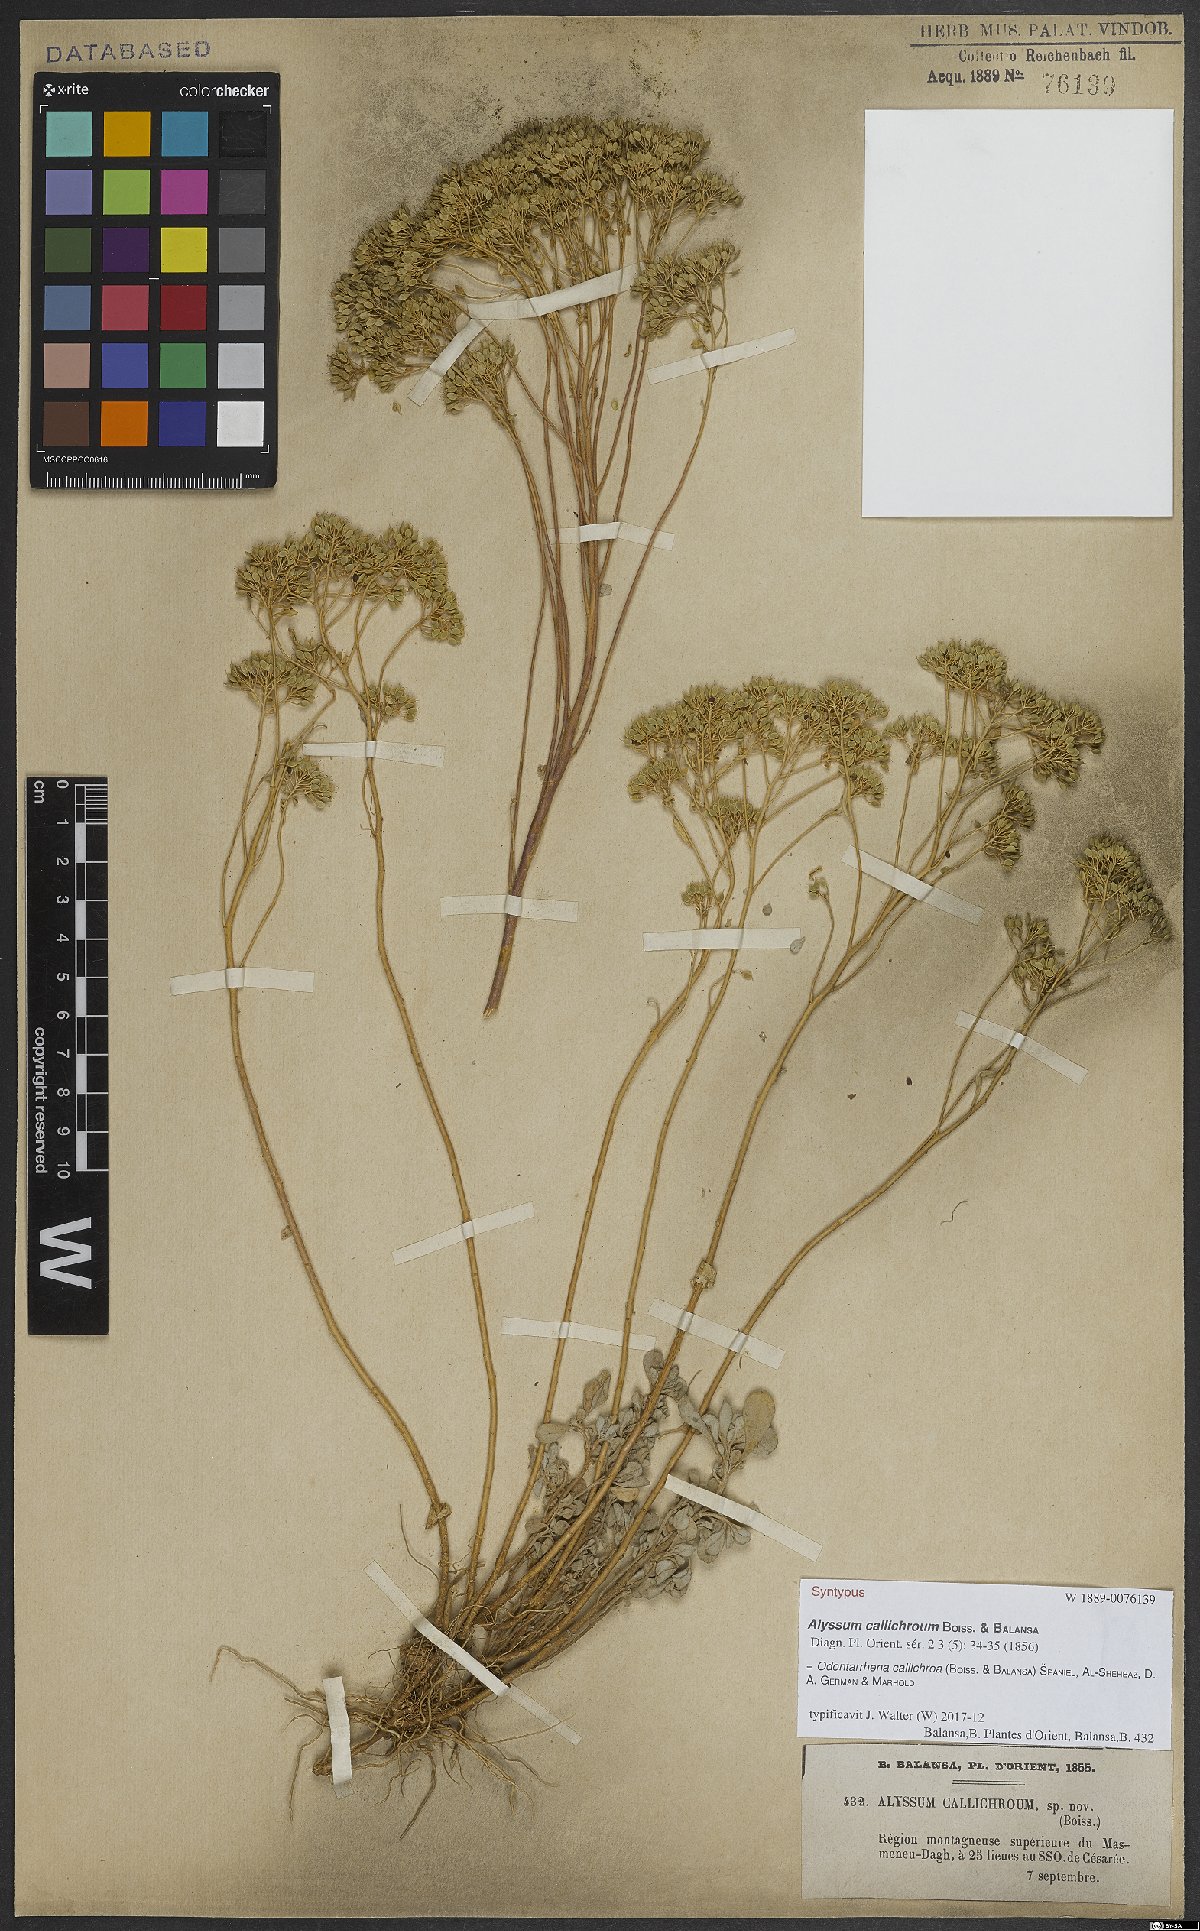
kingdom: Plantae
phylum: Tracheophyta
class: Magnoliopsida
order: Brassicales
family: Brassicaceae
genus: Odontarrhena
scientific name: Odontarrhena callichroa
